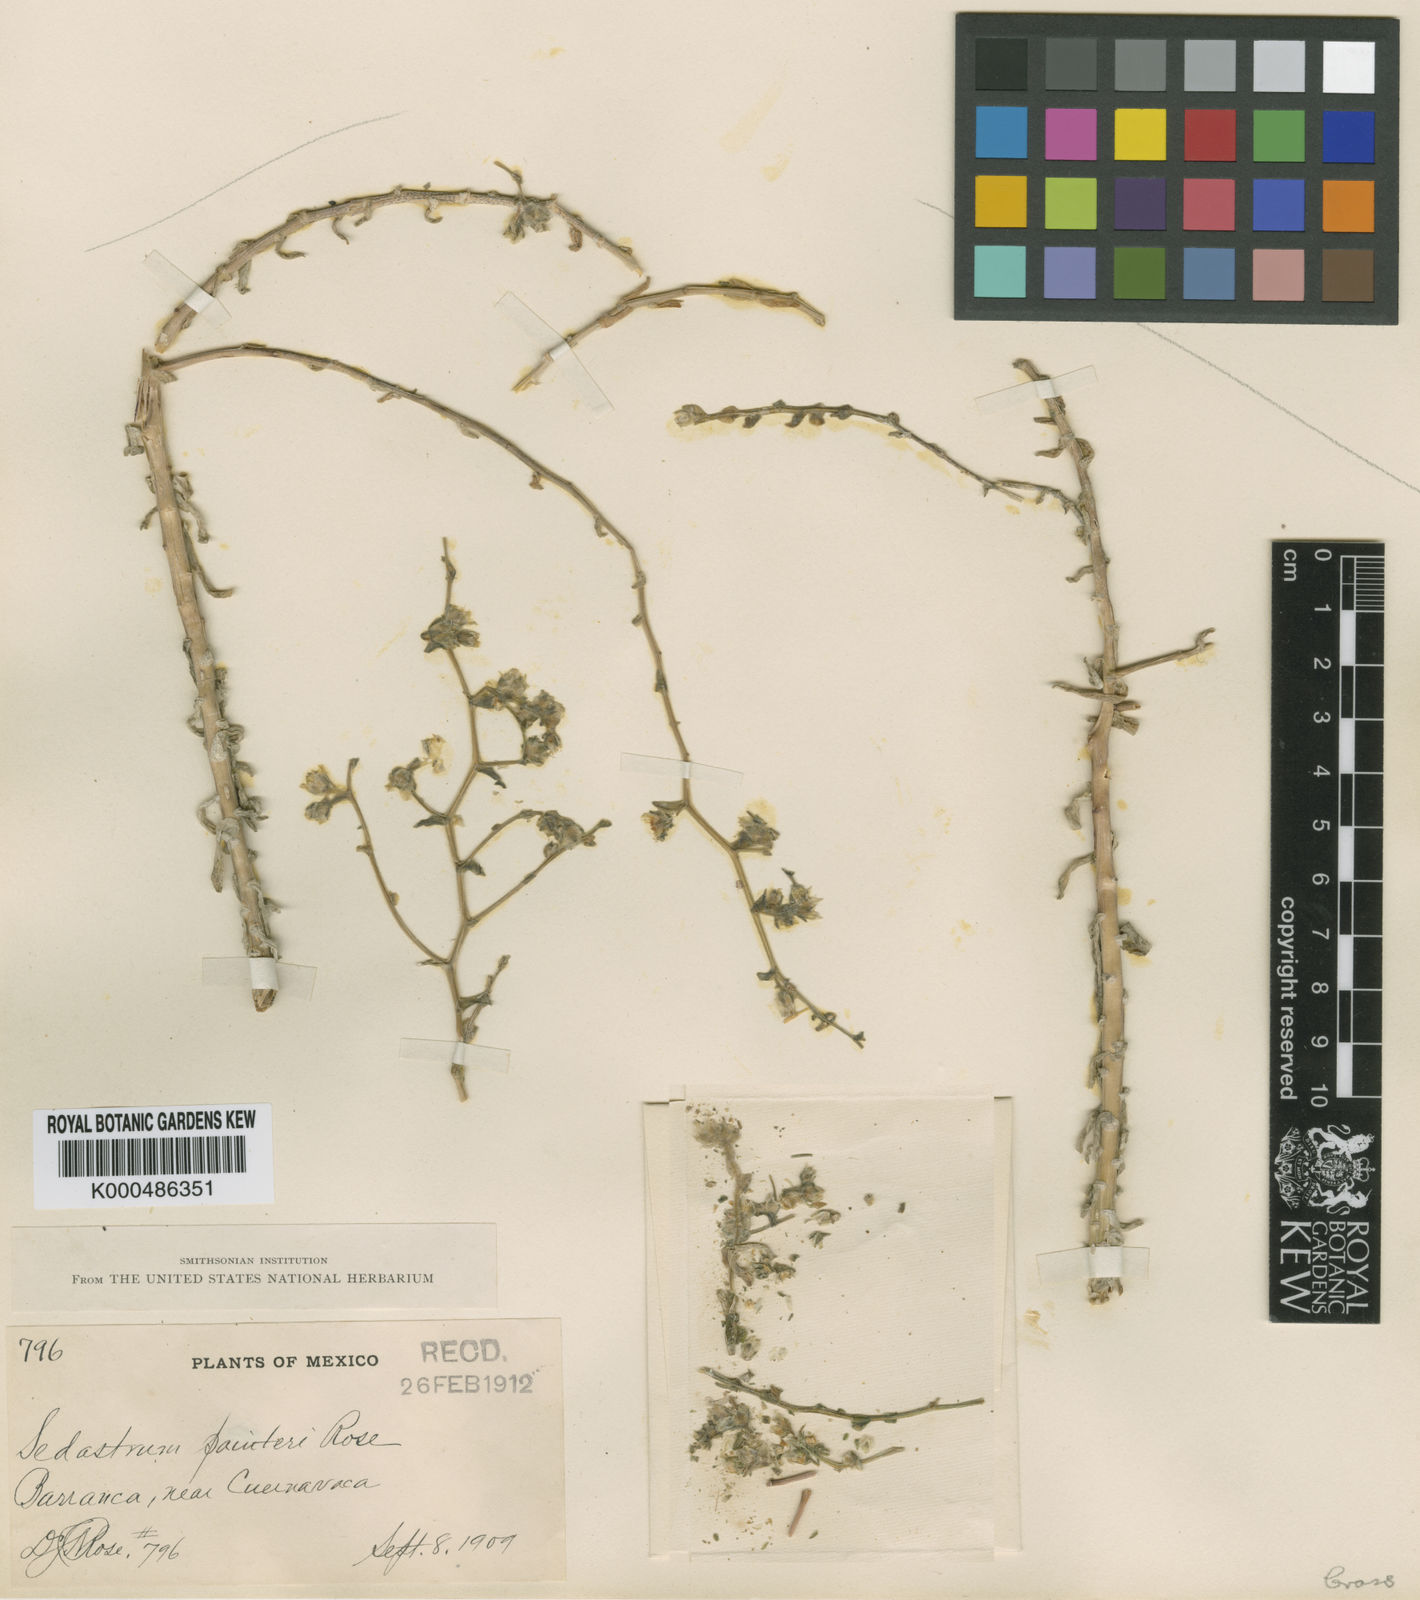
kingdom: Plantae
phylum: Tracheophyta
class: Magnoliopsida
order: Saxifragales
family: Crassulaceae
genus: Sedum
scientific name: Sedum hemsleyanum
